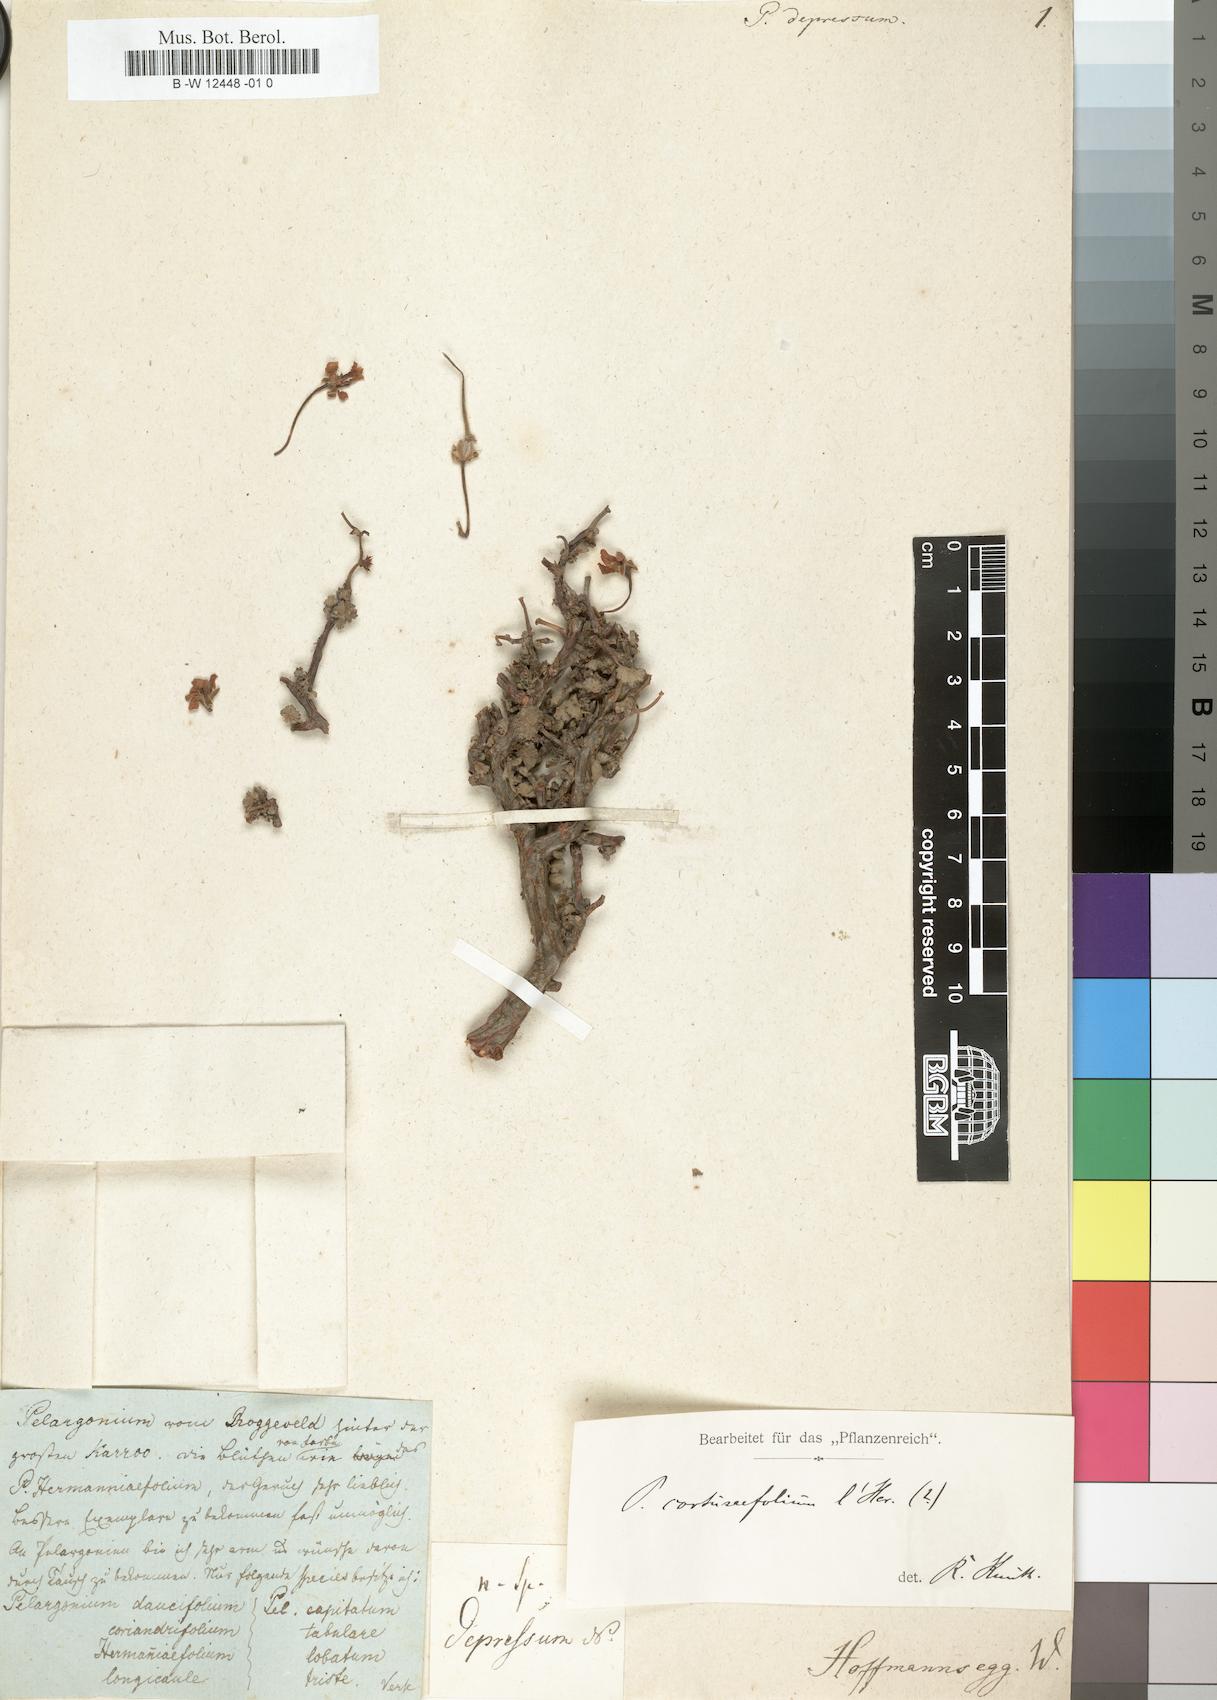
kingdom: Plantae
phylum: Tracheophyta
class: Magnoliopsida
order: Geraniales
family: Geraniaceae
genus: Pelargonium
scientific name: Pelargonium longiflorum
